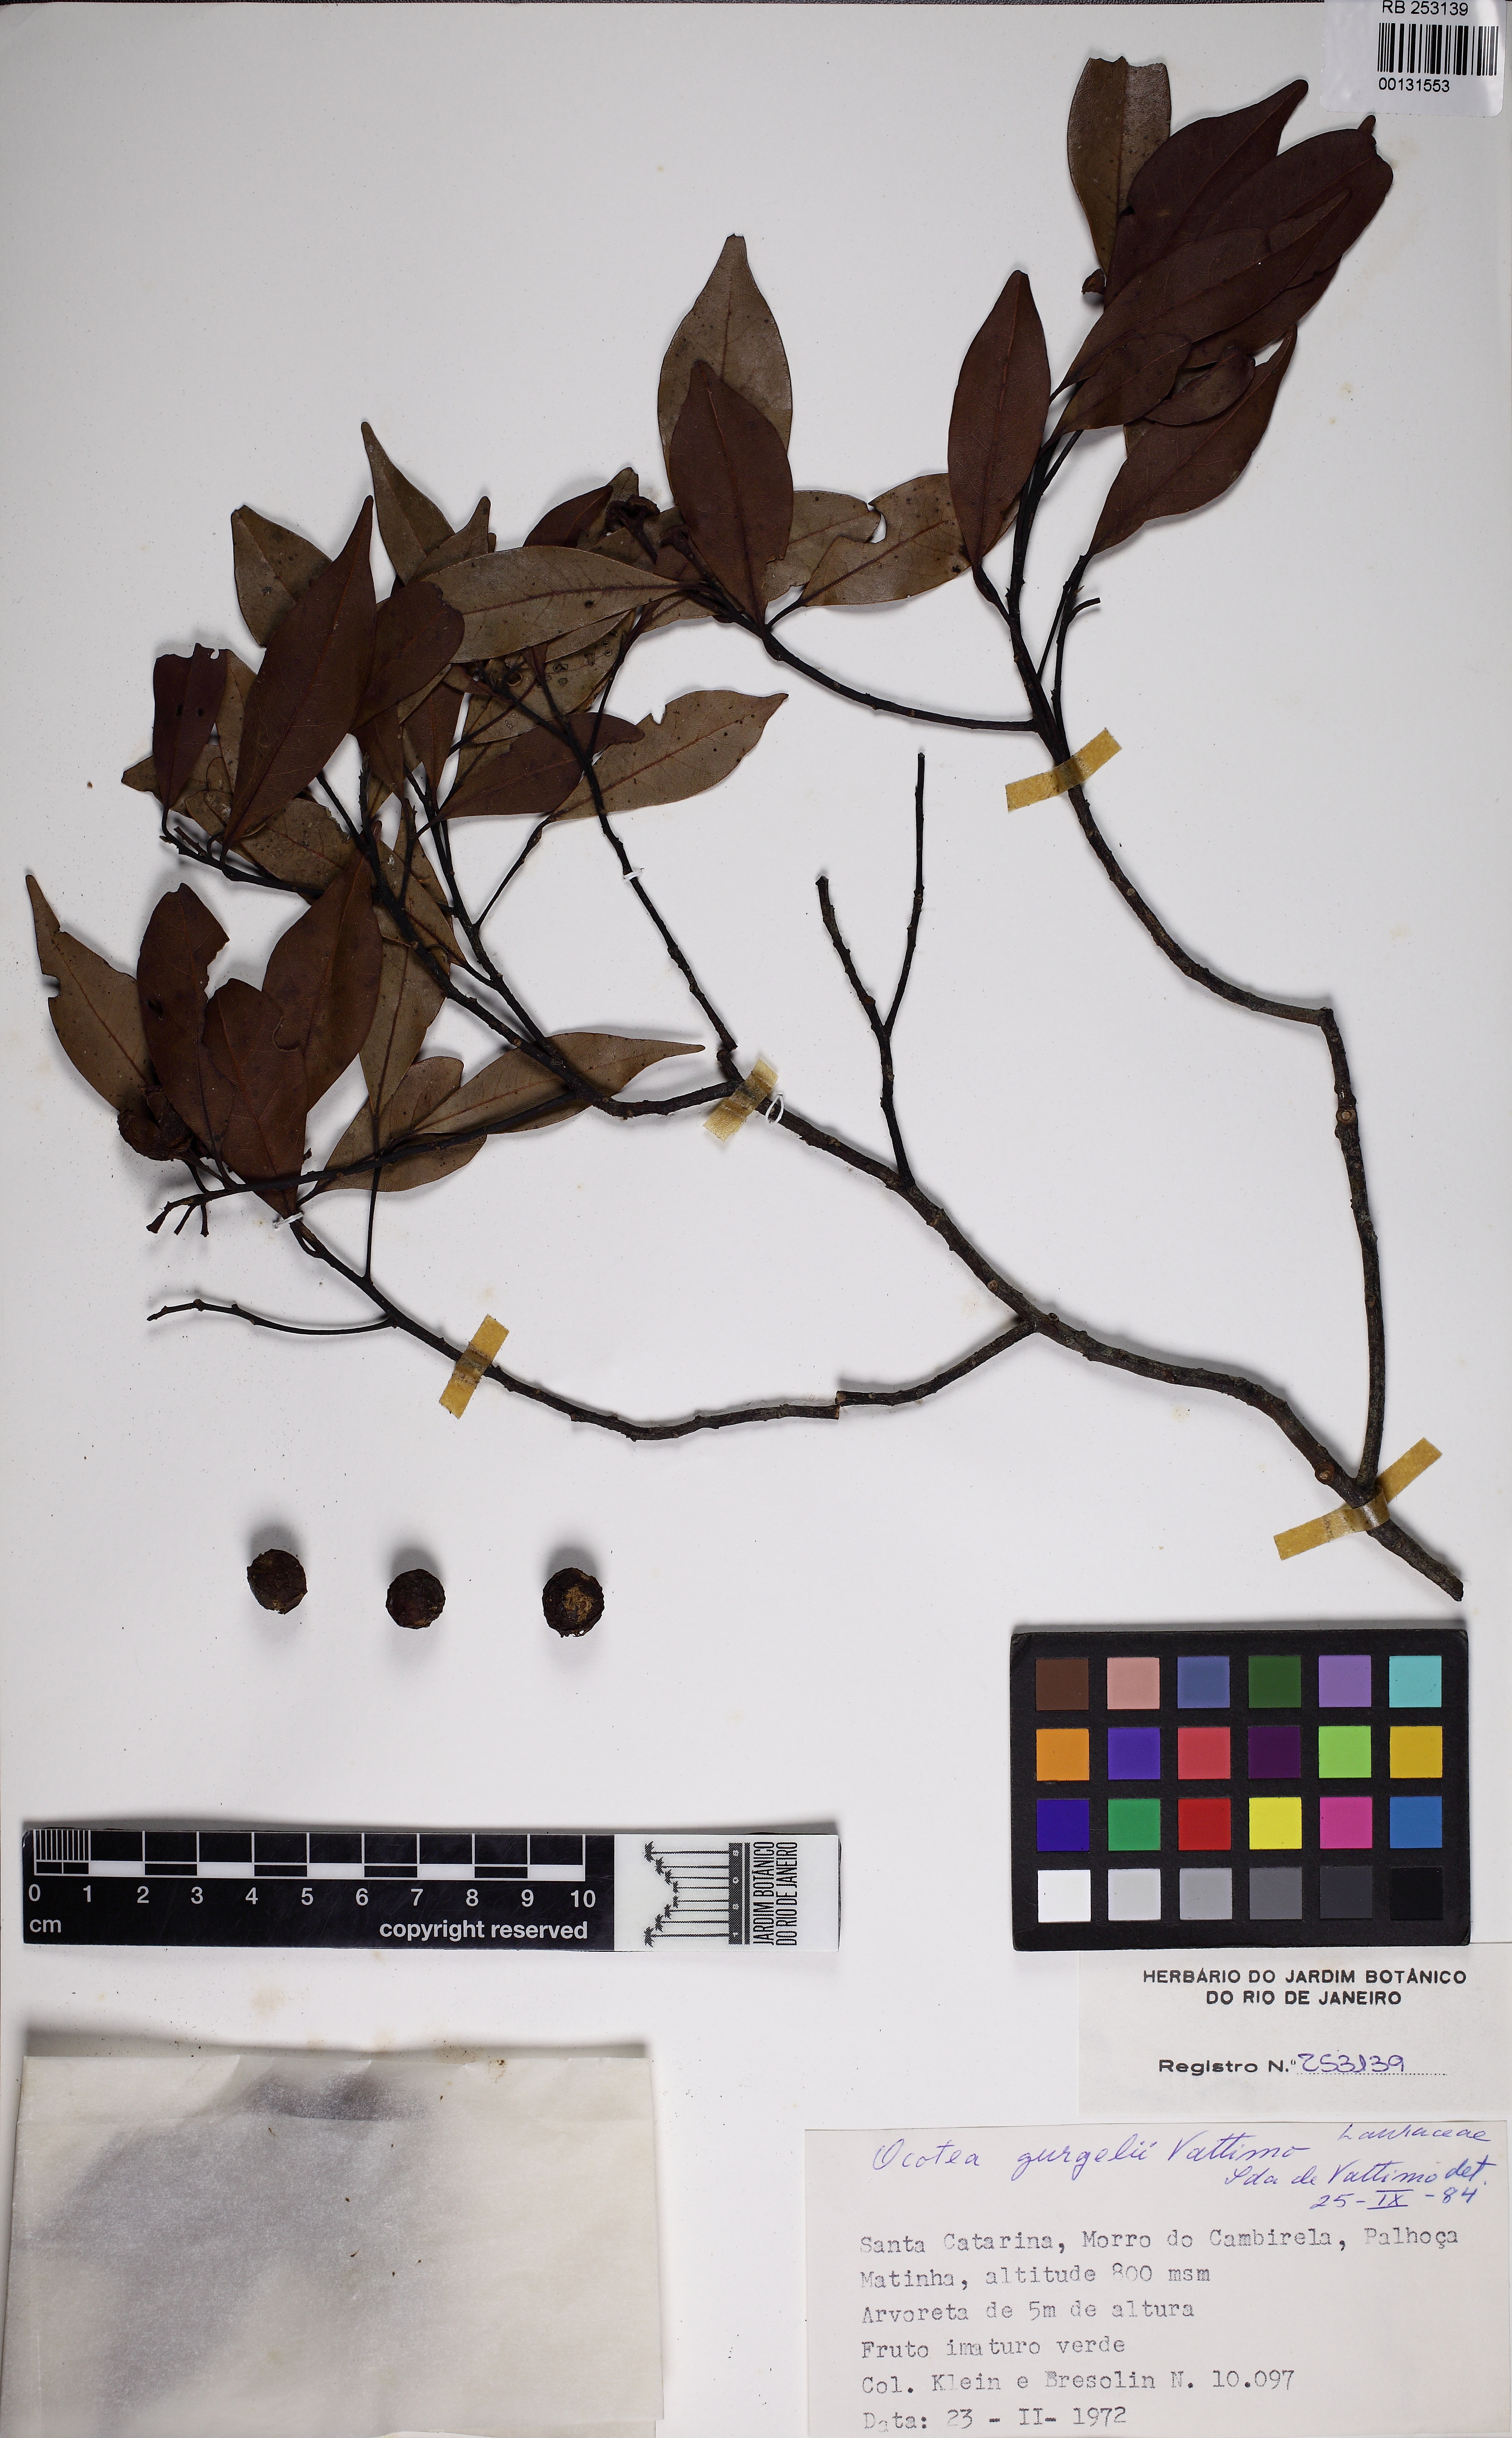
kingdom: Plantae
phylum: Tracheophyta
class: Magnoliopsida
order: Laurales
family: Lauraceae
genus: Mespilodaphne
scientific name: Mespilodaphne corymbosa
